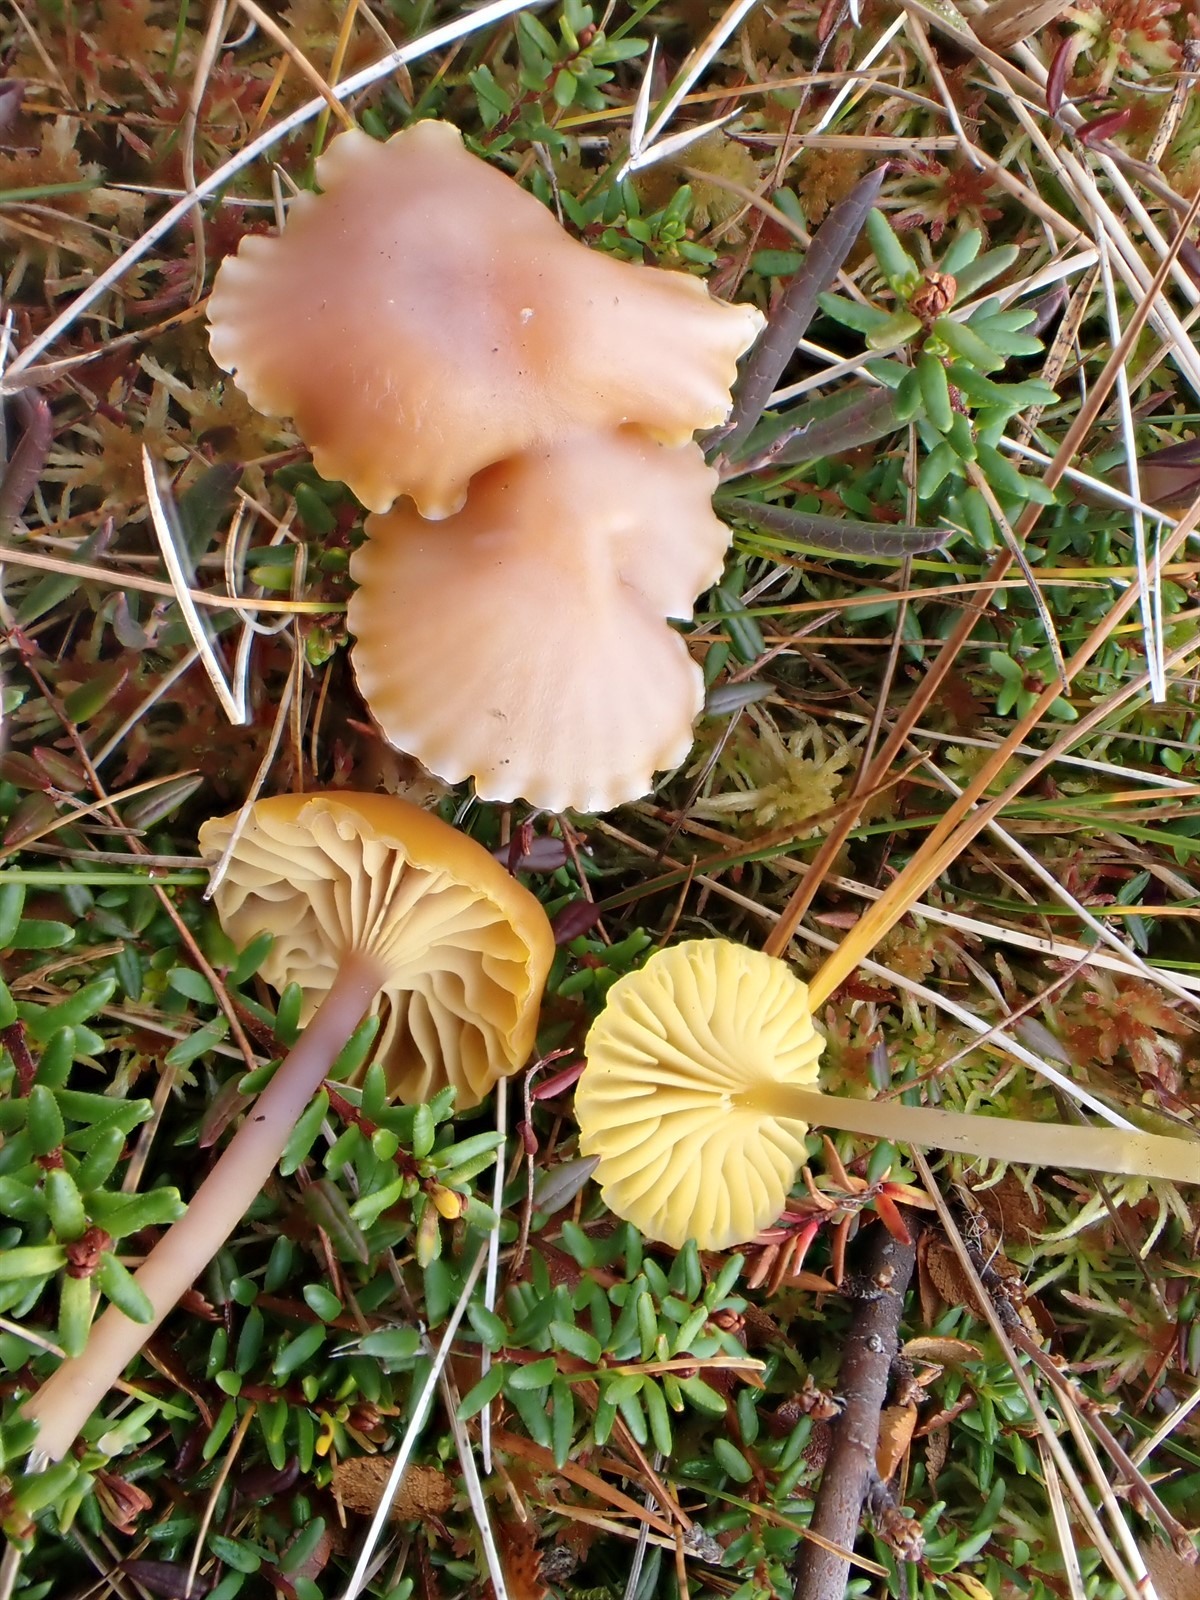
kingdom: Fungi
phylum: Basidiomycota
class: Agaricomycetes
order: Agaricales
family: Hygrophoraceae
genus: Chromosera
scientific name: Chromosera lilacina
